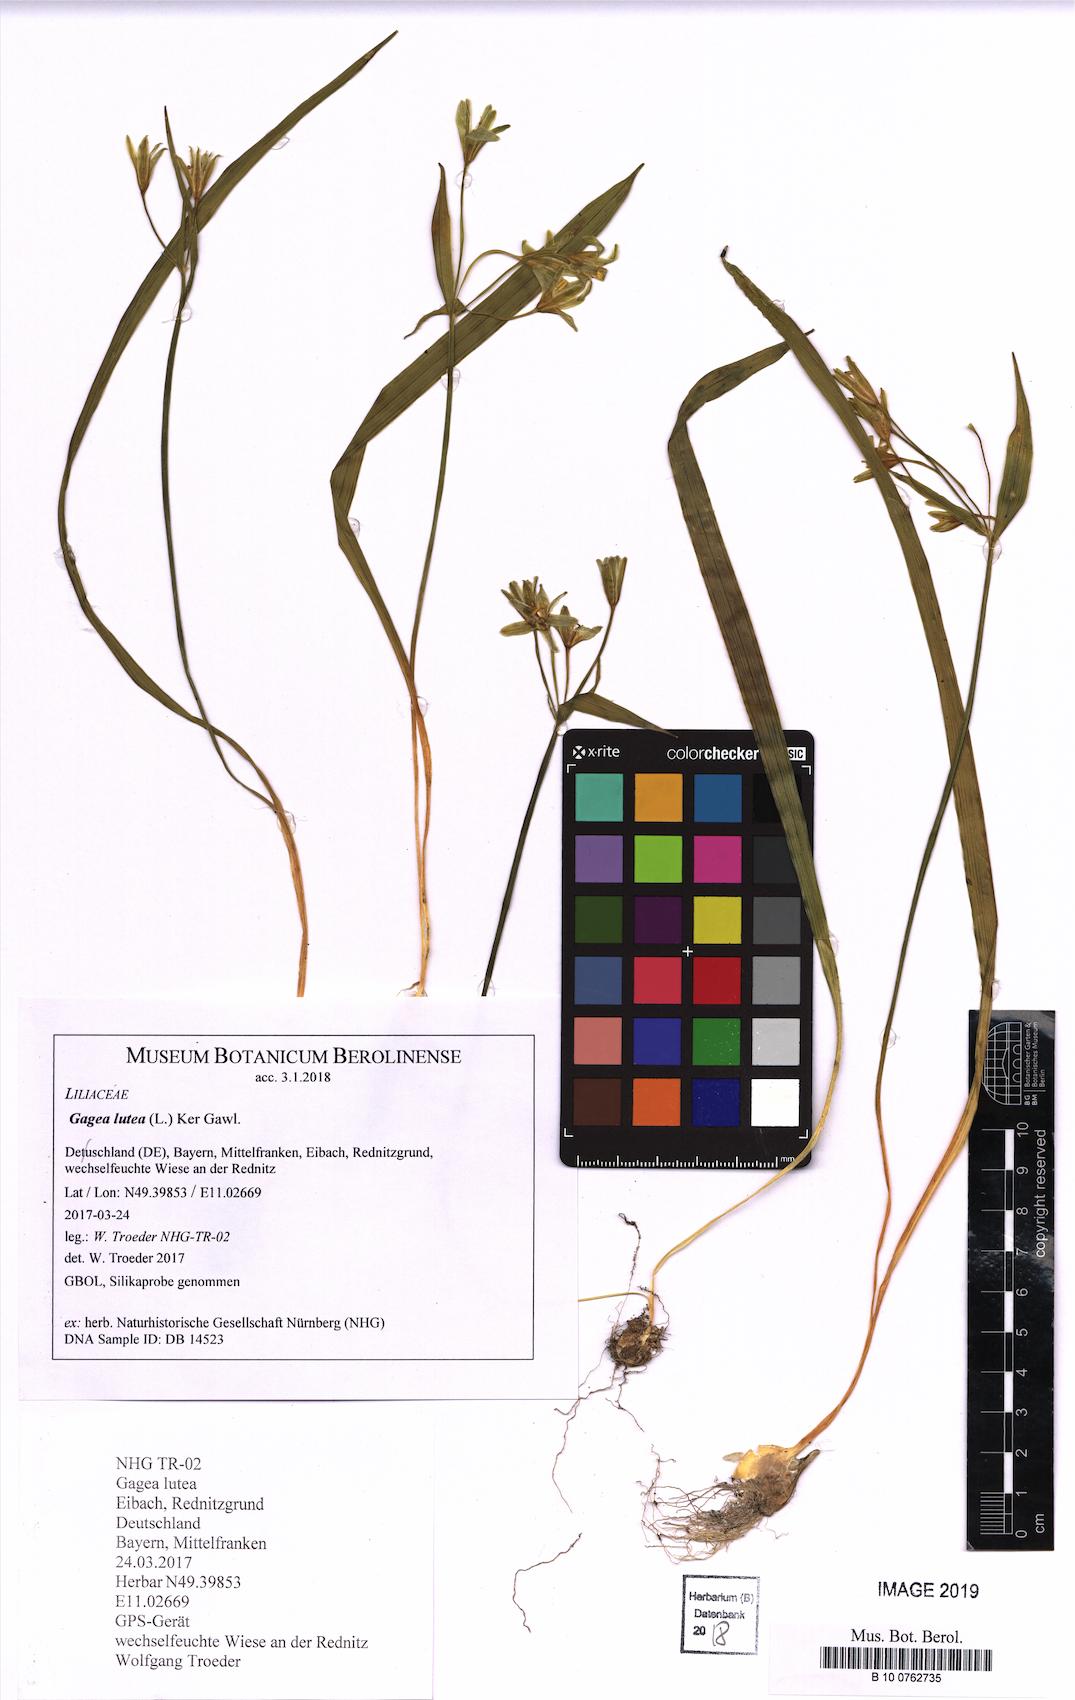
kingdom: Plantae
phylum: Tracheophyta
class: Liliopsida
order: Liliales
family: Liliaceae
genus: Gagea
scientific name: Gagea lutea
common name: Yellow star-of-bethlehem
